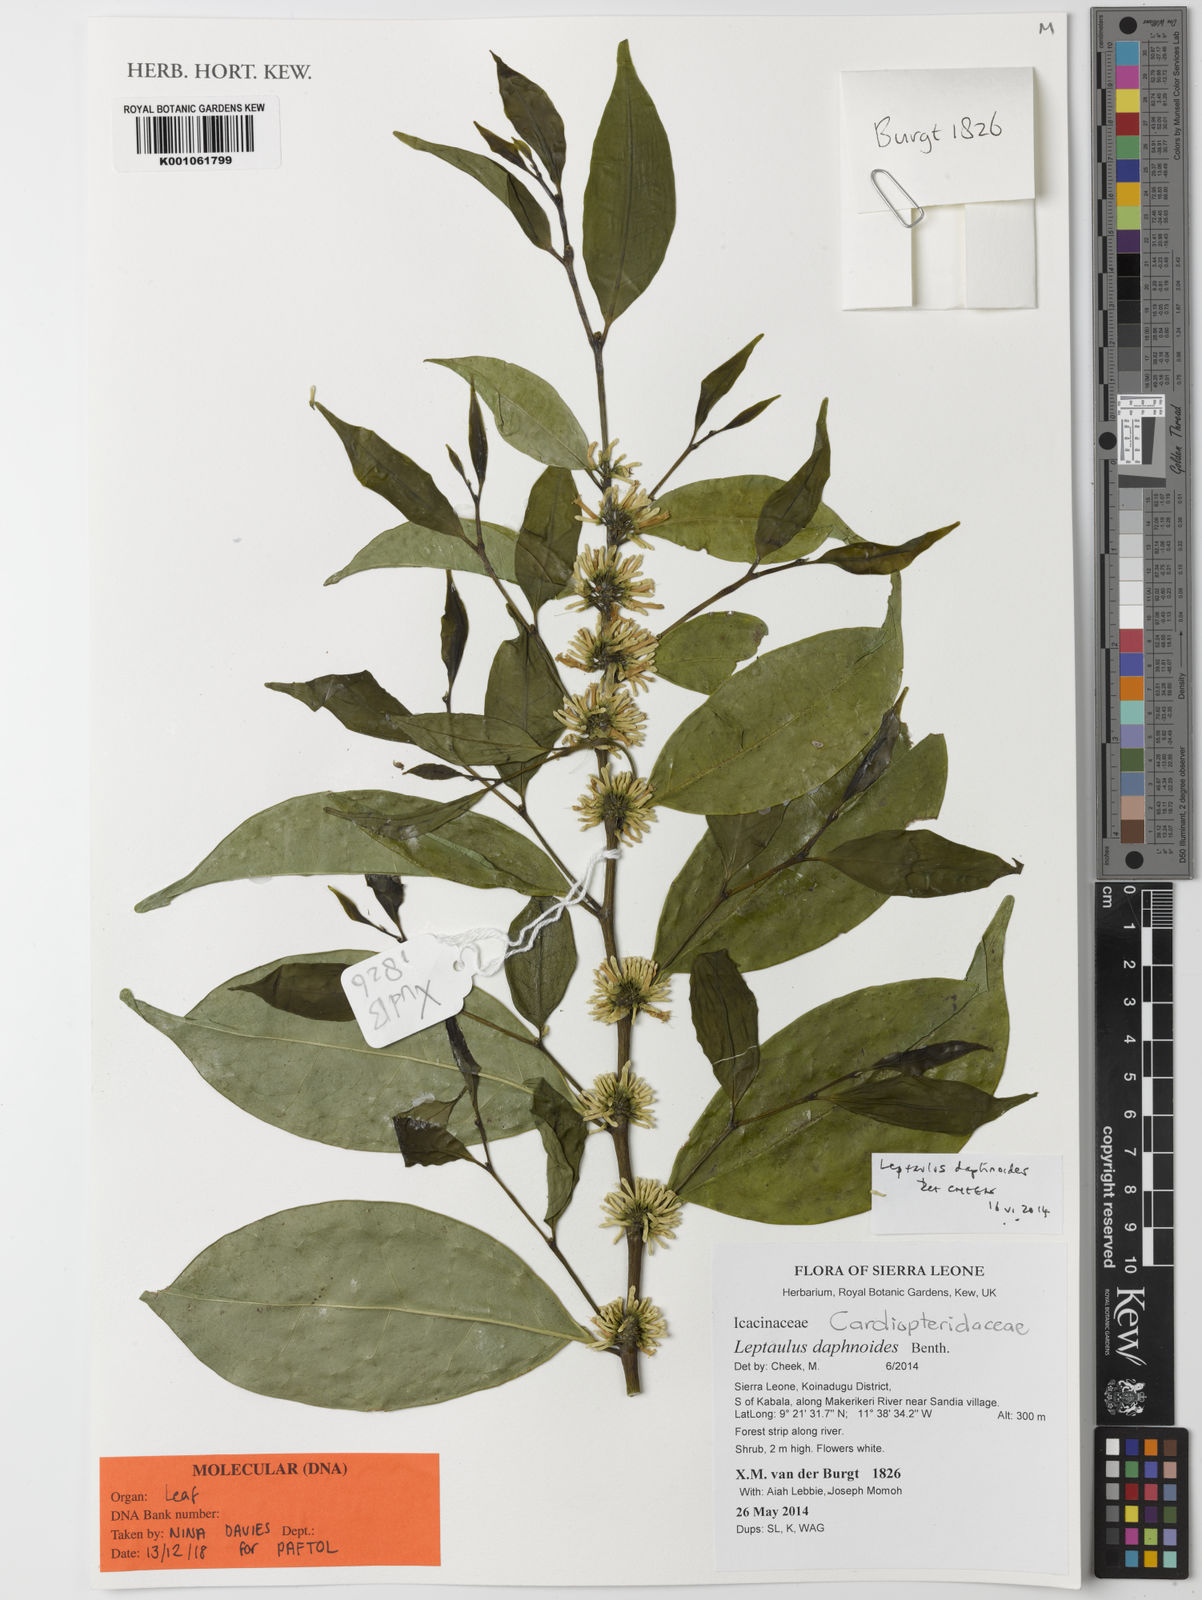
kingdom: Plantae
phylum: Tracheophyta
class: Magnoliopsida
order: Cardiopteridales
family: Cardiopteridaceae
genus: Leptaulus
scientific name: Leptaulus
